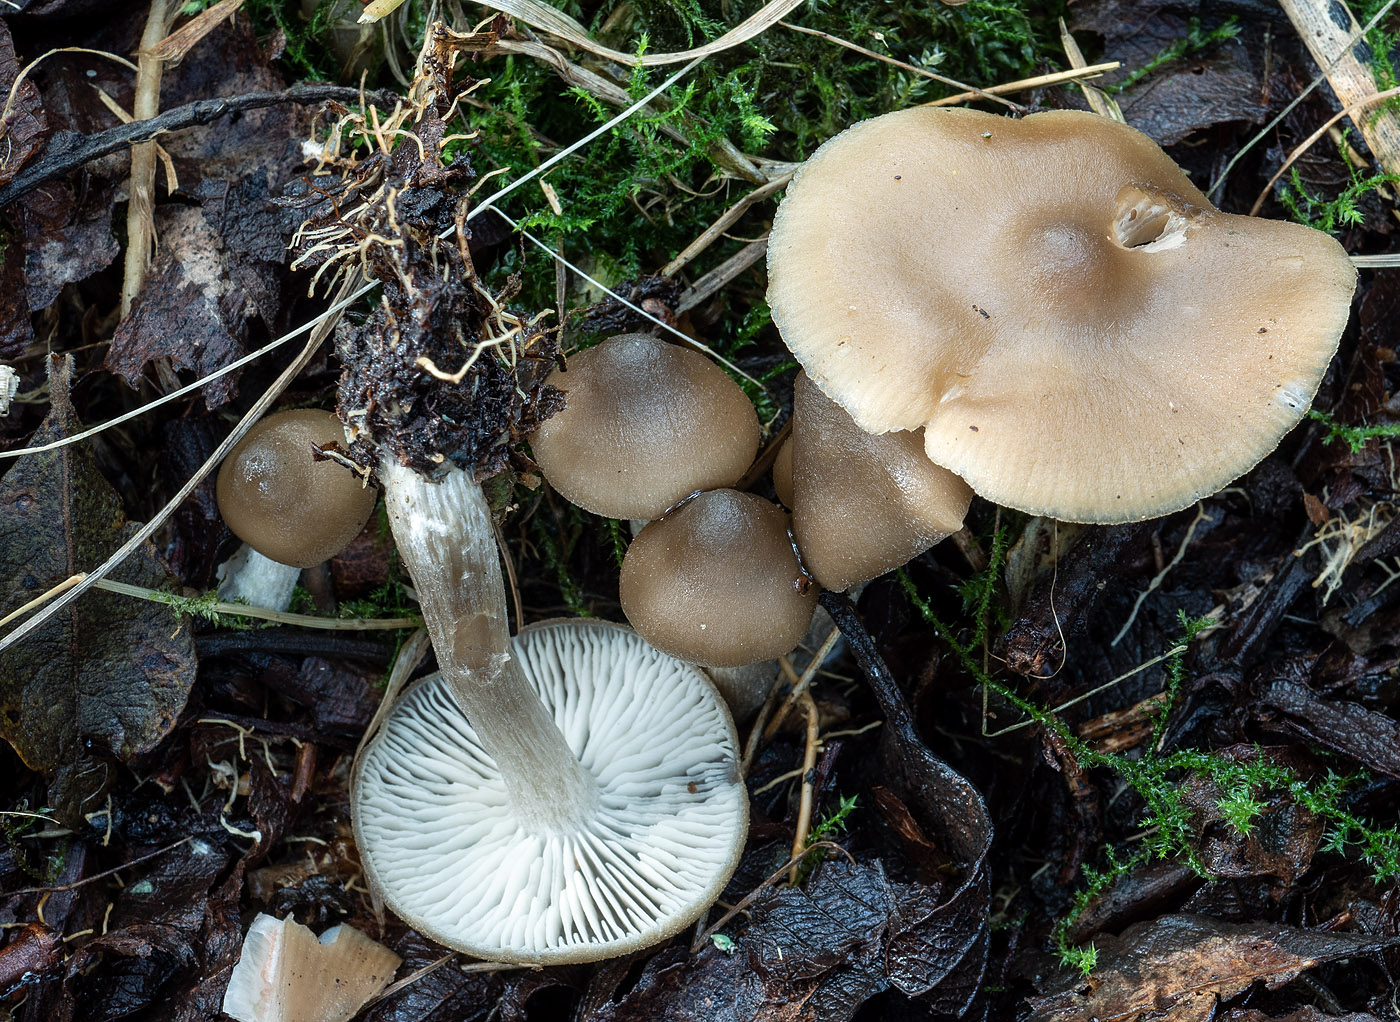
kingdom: Fungi
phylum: Basidiomycota
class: Agaricomycetes
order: Agaricales
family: Entolomataceae
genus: Entoloma
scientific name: Entoloma sericatum
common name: rank rødblad
